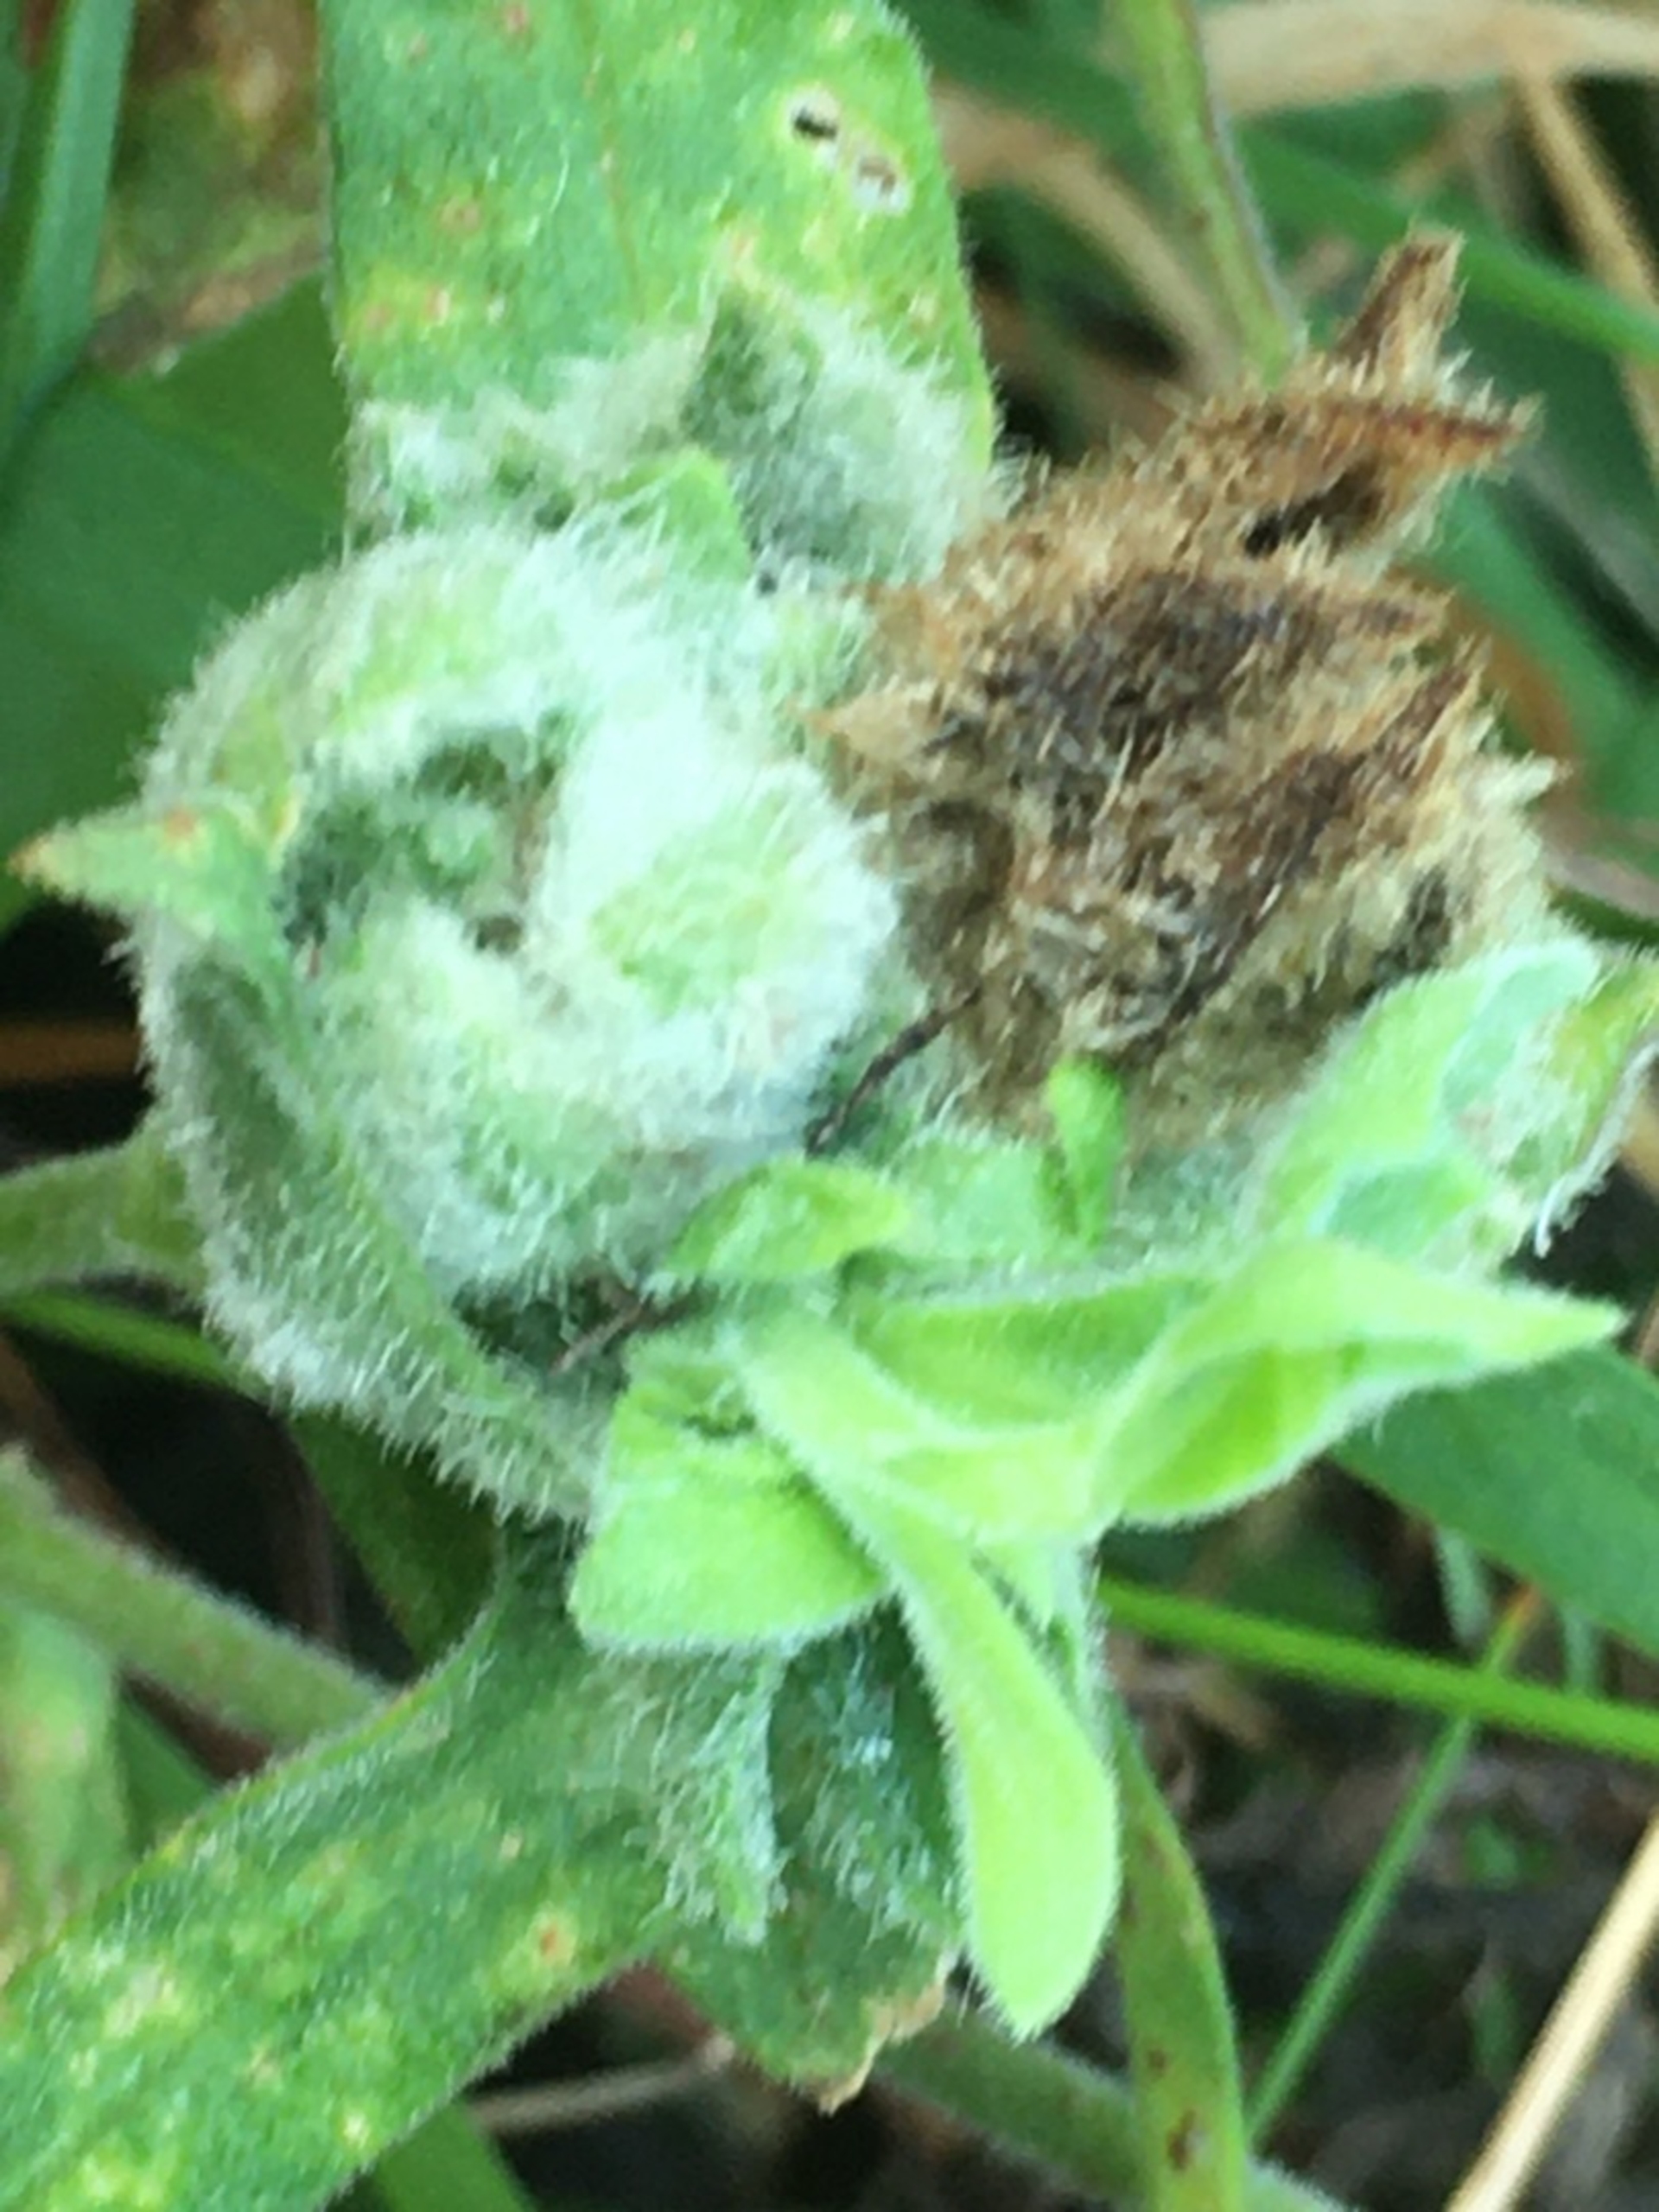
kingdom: Animalia
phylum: Arthropoda
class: Insecta
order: Diptera
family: Cecidomyiidae
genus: Neomikiella
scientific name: Neomikiella lychnidis
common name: Oldingegalmyg
